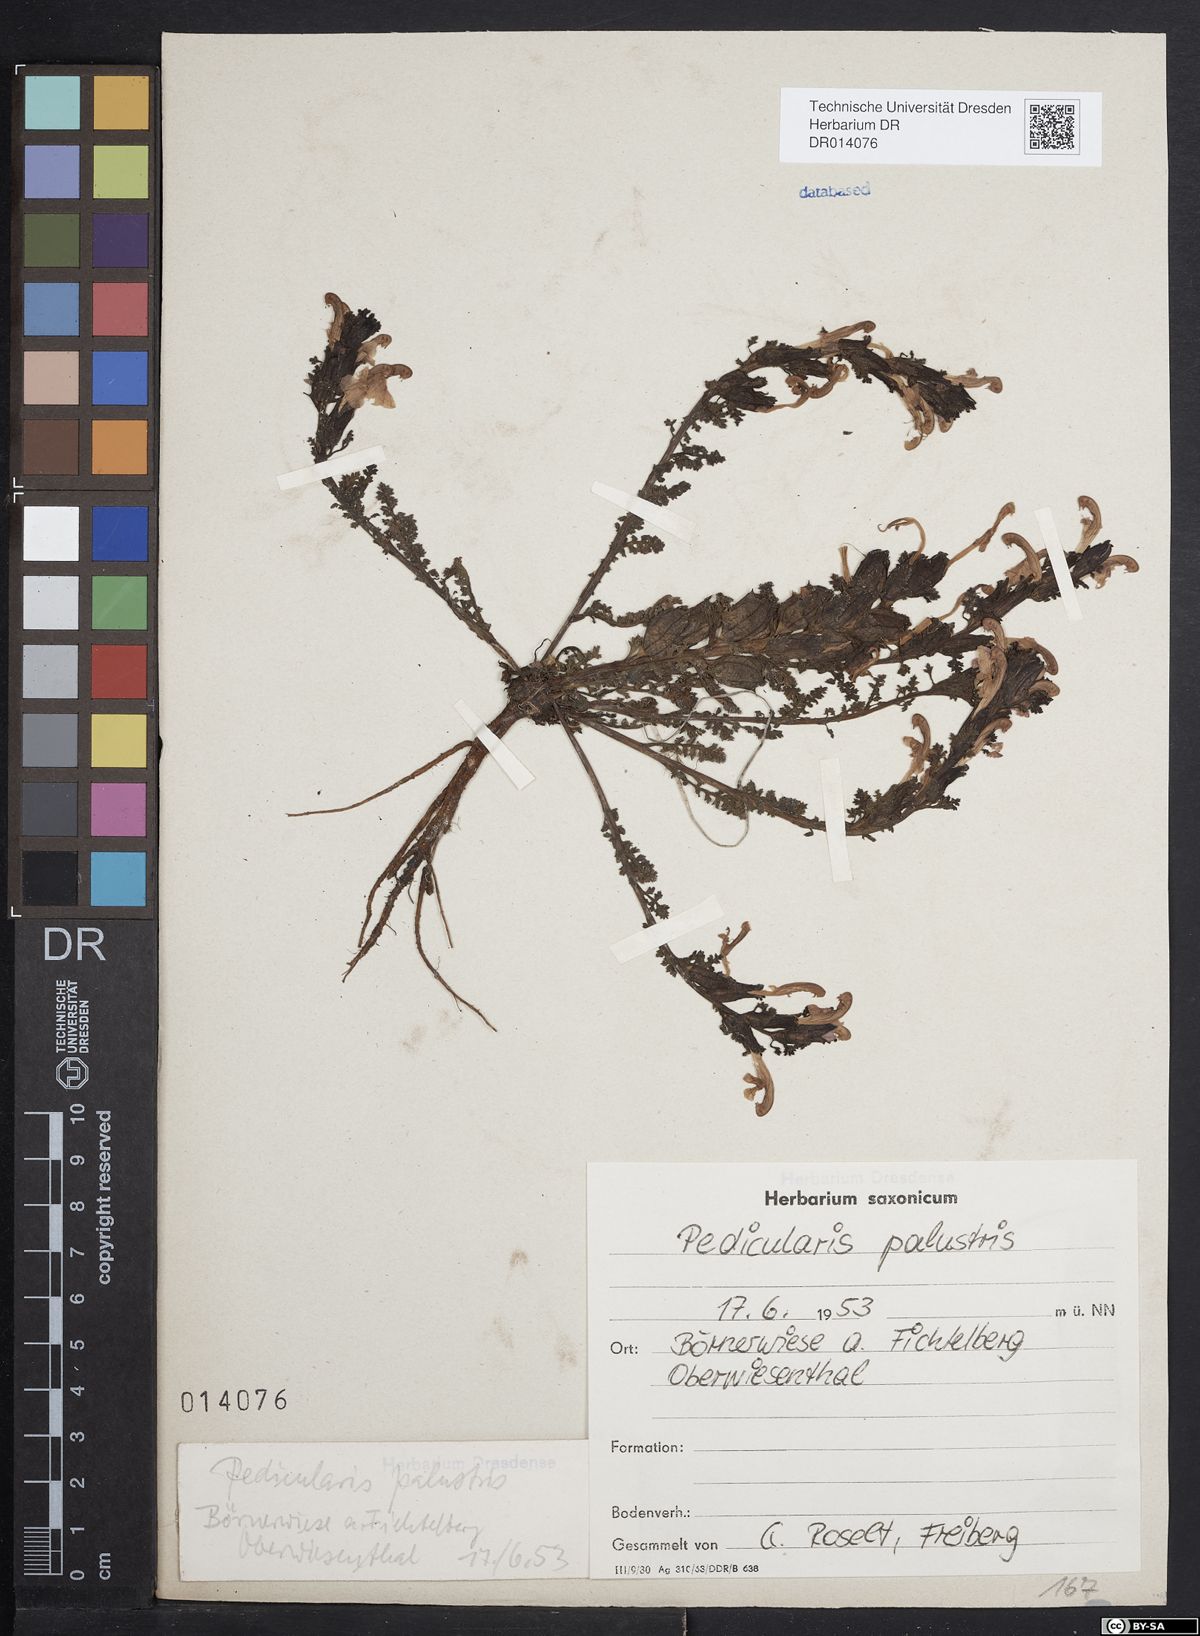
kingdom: Plantae
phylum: Tracheophyta
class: Magnoliopsida
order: Lamiales
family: Orobanchaceae
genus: Pedicularis
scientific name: Pedicularis palustris
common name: Marsh lousewort
